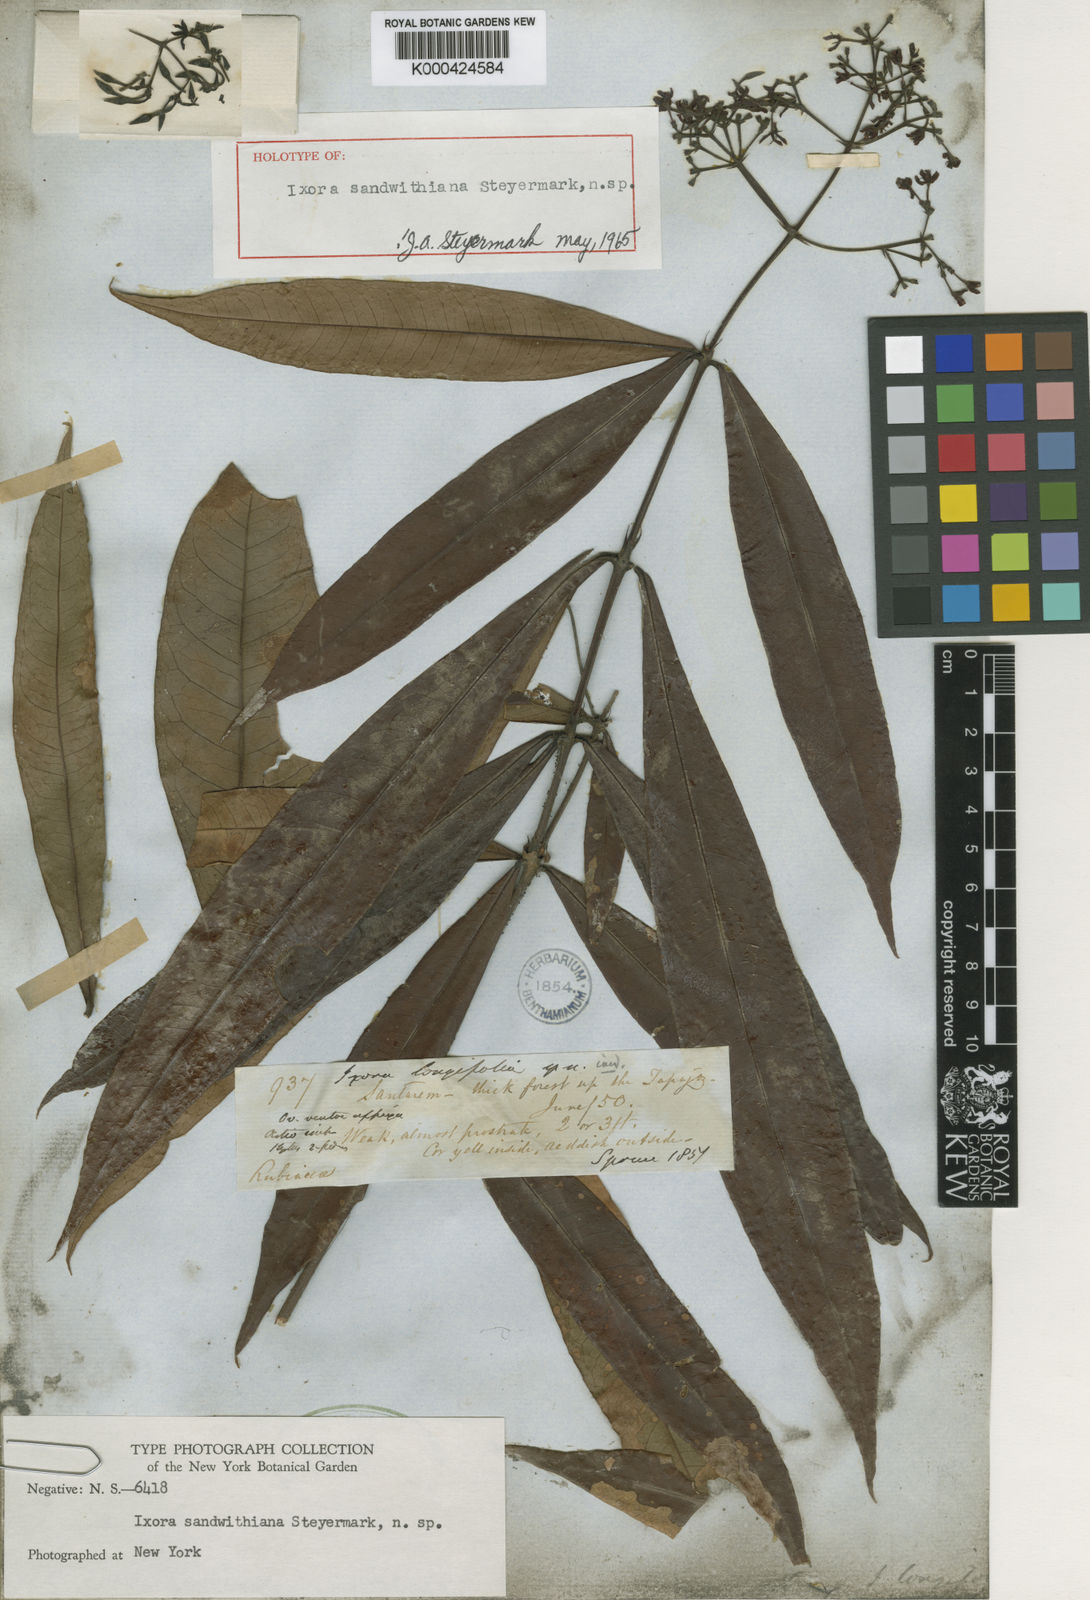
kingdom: Plantae
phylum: Tracheophyta
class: Magnoliopsida
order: Gentianales
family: Rubiaceae
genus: Ixora
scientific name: Ixora sandwithiana
